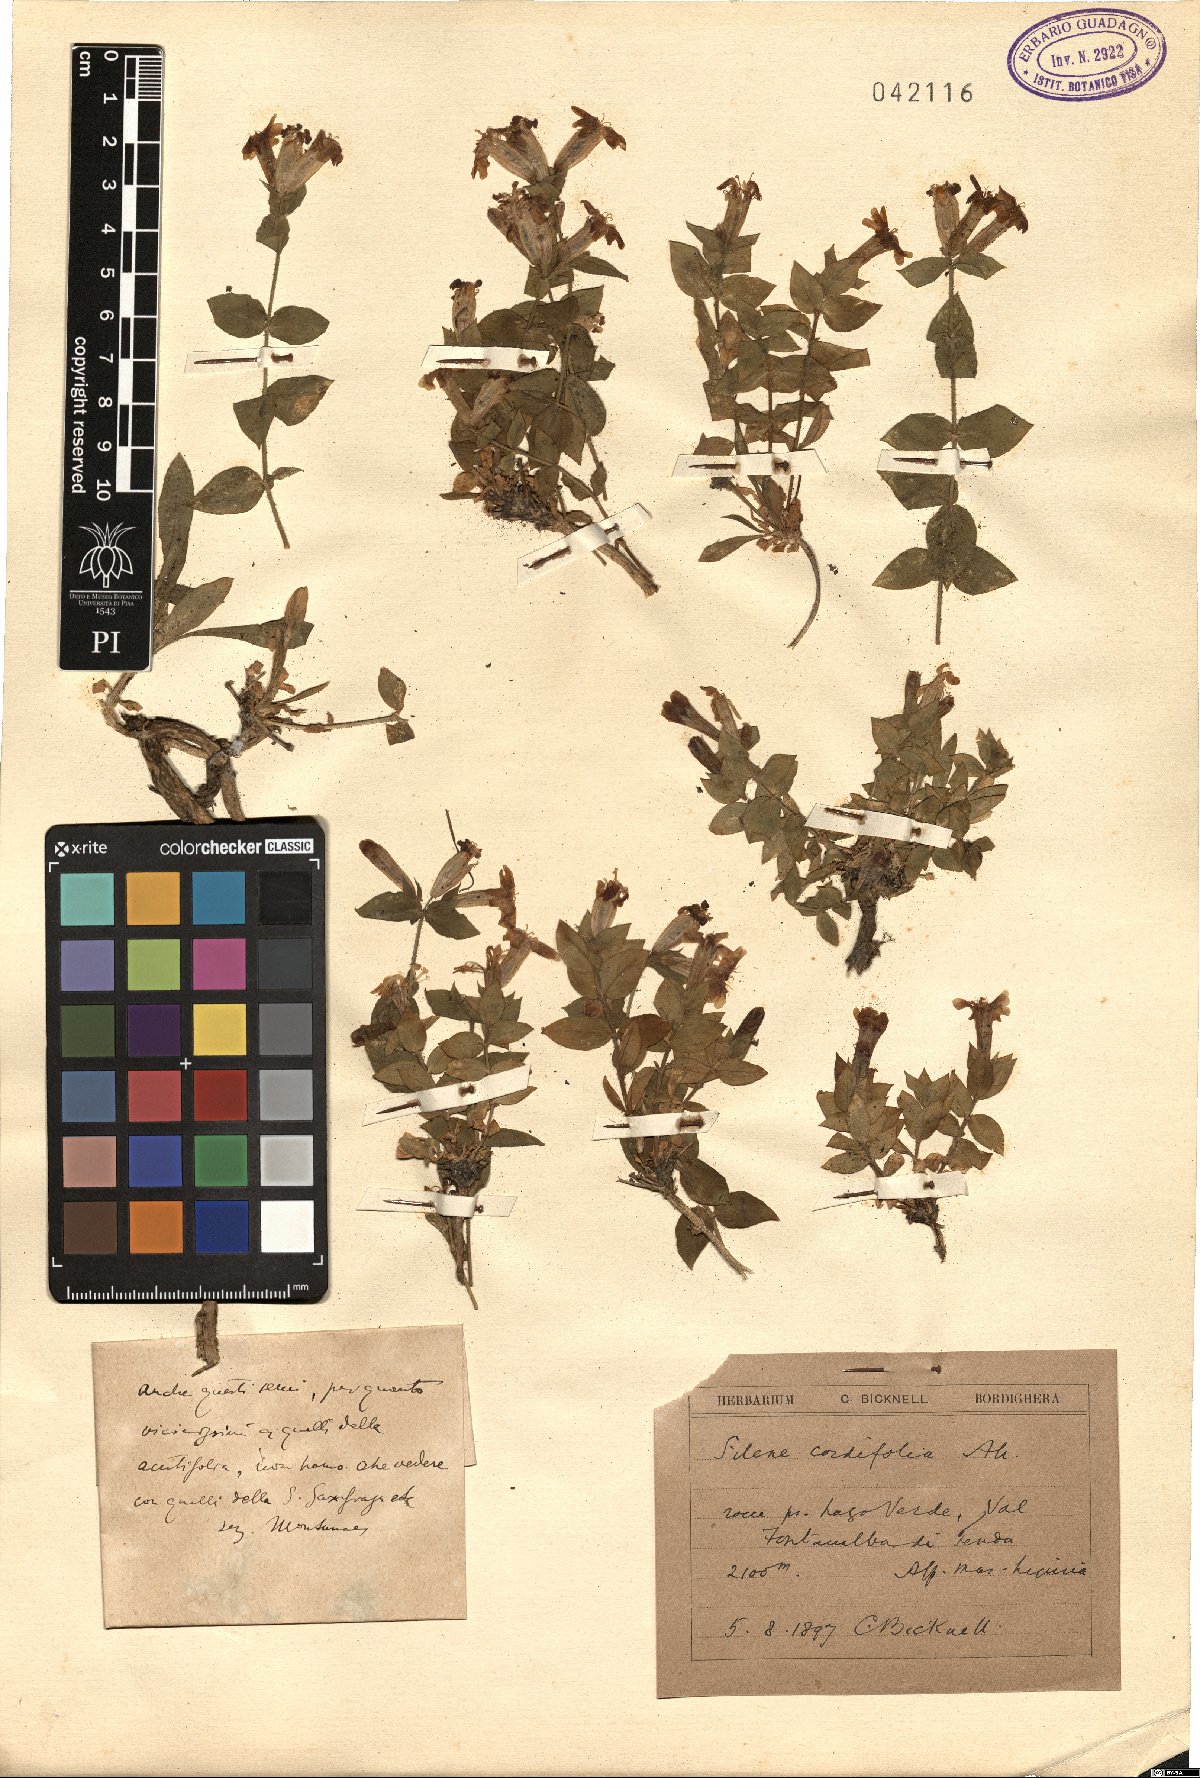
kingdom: Plantae
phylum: Tracheophyta
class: Magnoliopsida
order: Caryophyllales
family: Caryophyllaceae
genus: Silene
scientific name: Silene cordifolia
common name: Heart-leaved catchfly
